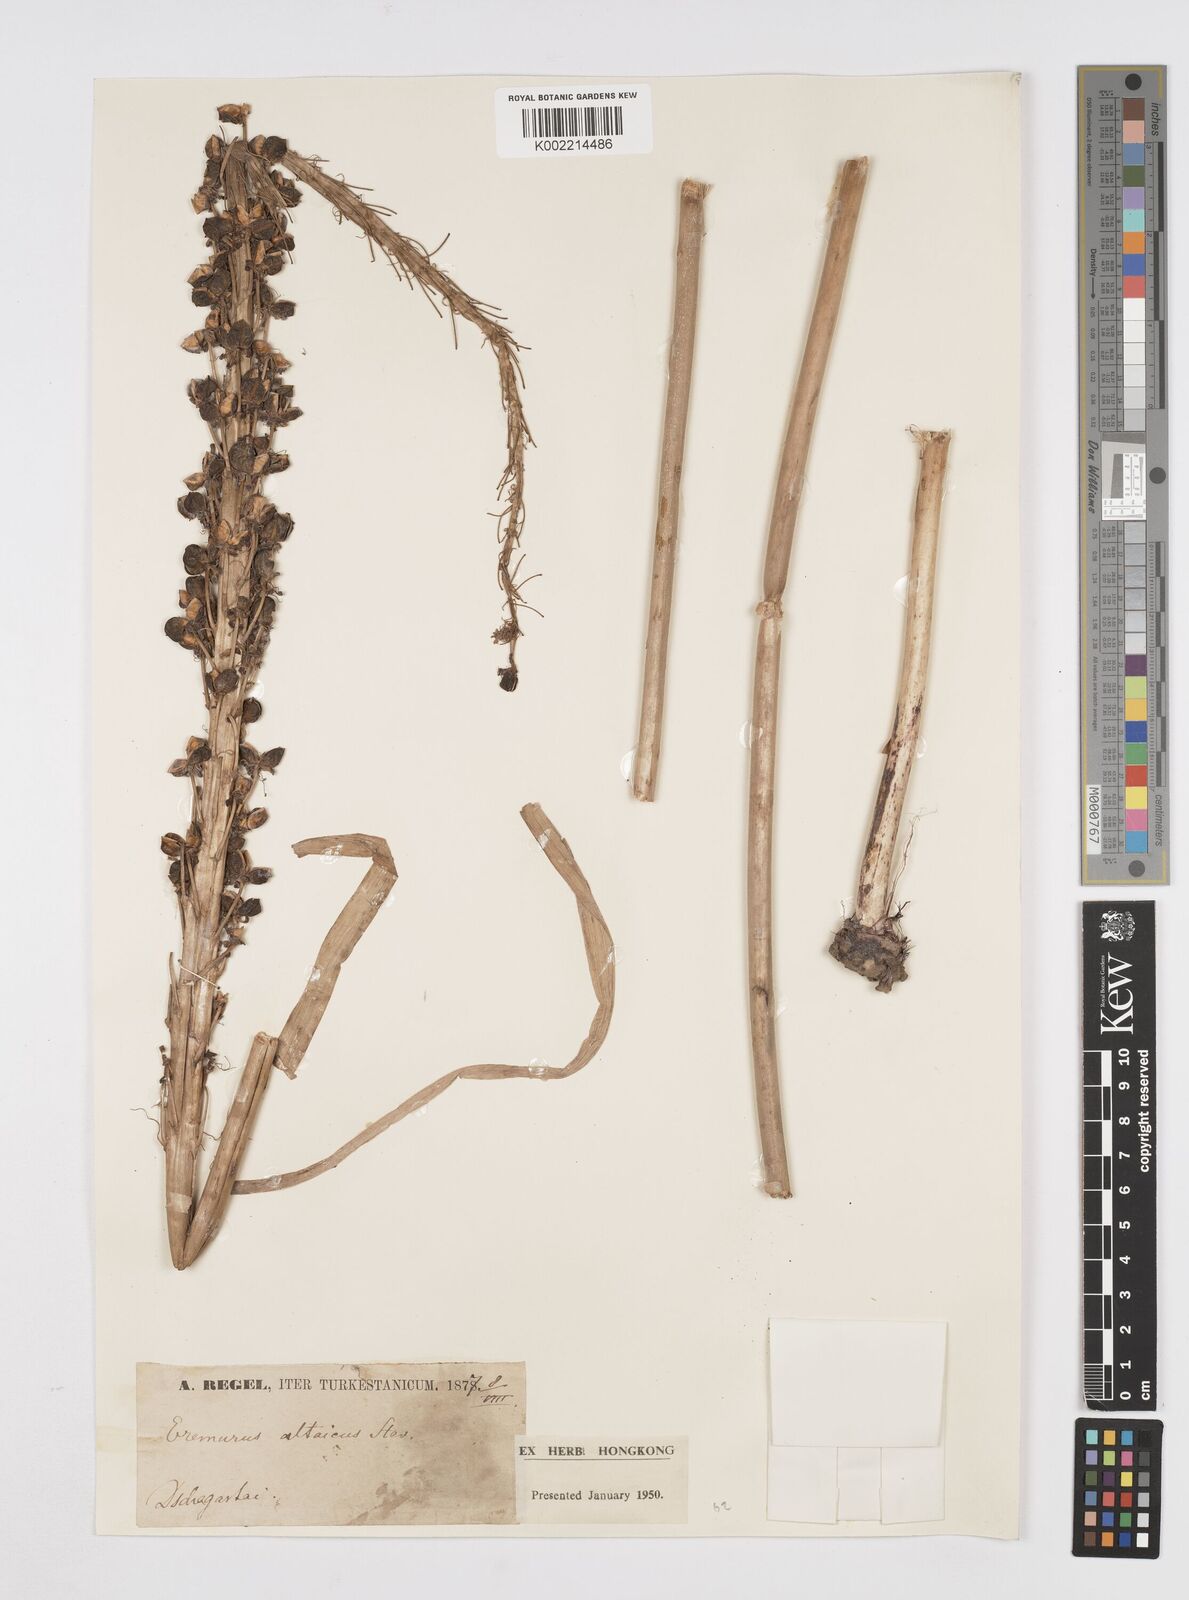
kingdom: Plantae
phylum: Tracheophyta
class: Liliopsida
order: Asparagales
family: Asphodelaceae
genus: Eremurus
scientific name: Eremurus altaicus
